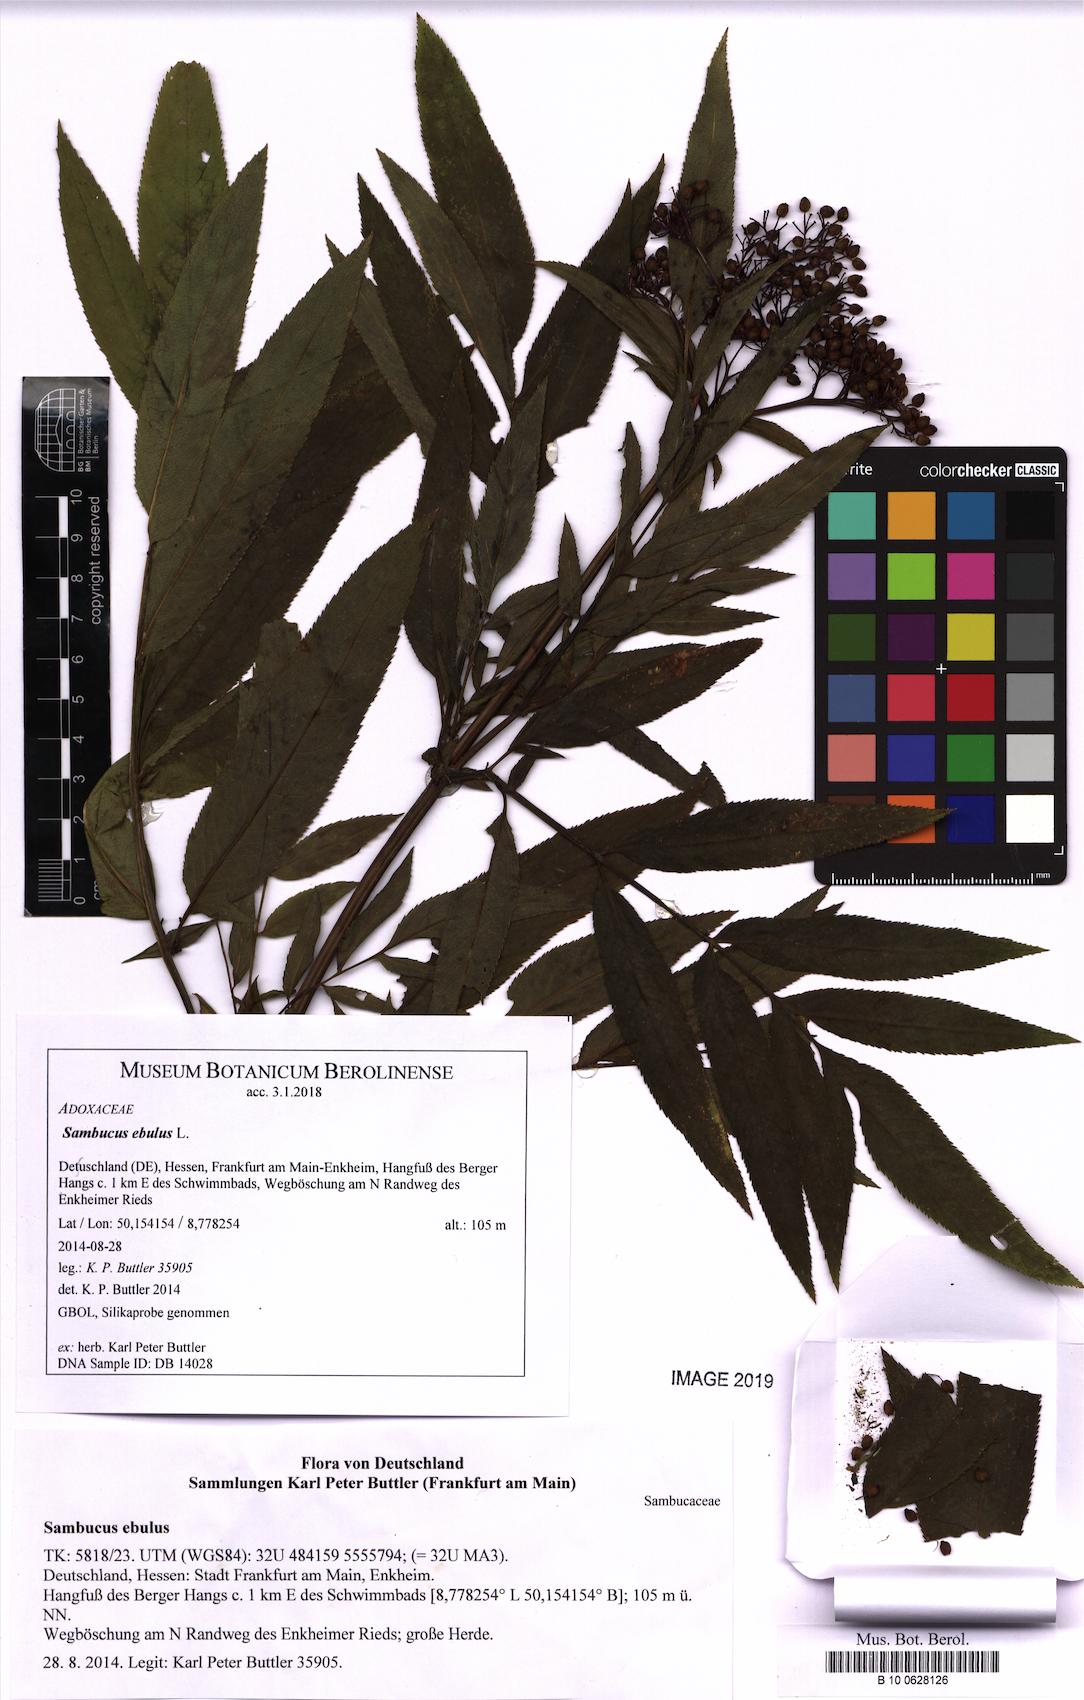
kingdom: Plantae
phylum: Tracheophyta
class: Magnoliopsida
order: Dipsacales
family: Viburnaceae
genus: Sambucus
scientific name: Sambucus ebulus
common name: Dwarf elder
